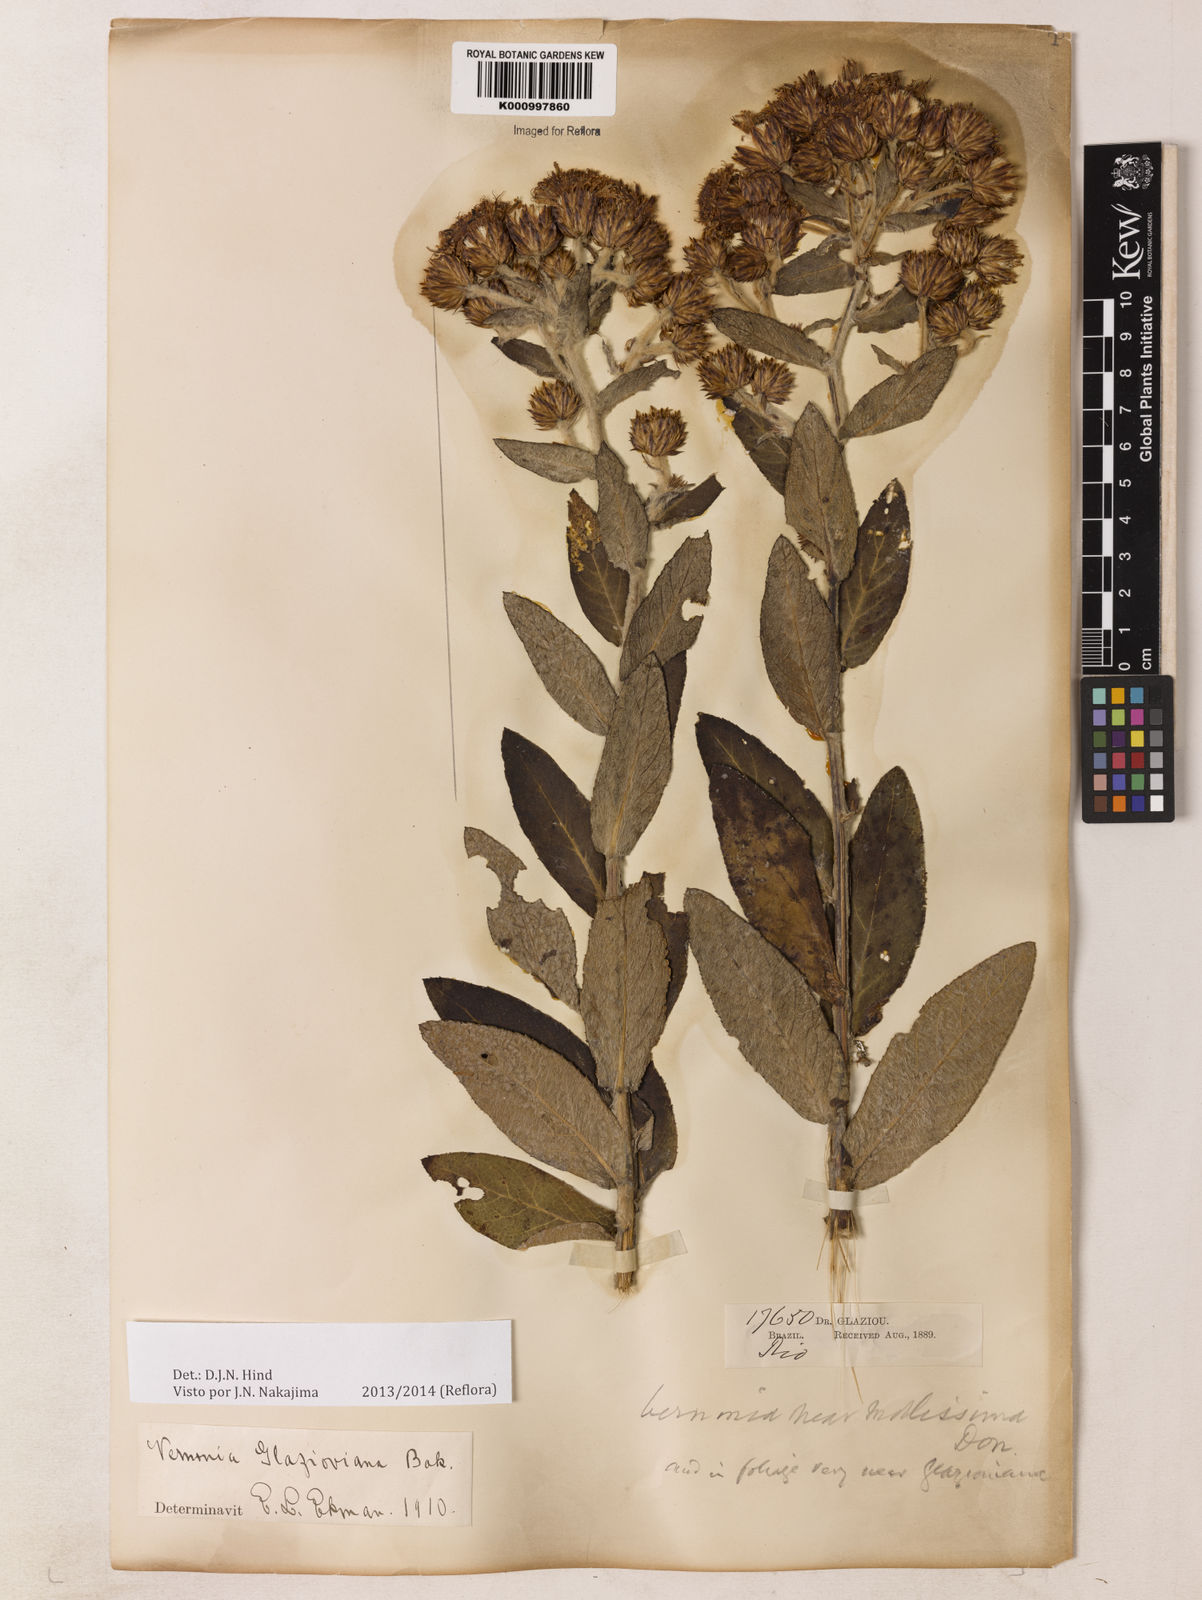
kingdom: Plantae
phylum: Tracheophyta
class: Magnoliopsida
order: Asterales
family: Asteraceae
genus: Lessingianthus
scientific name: Lessingianthus glaziovianus
